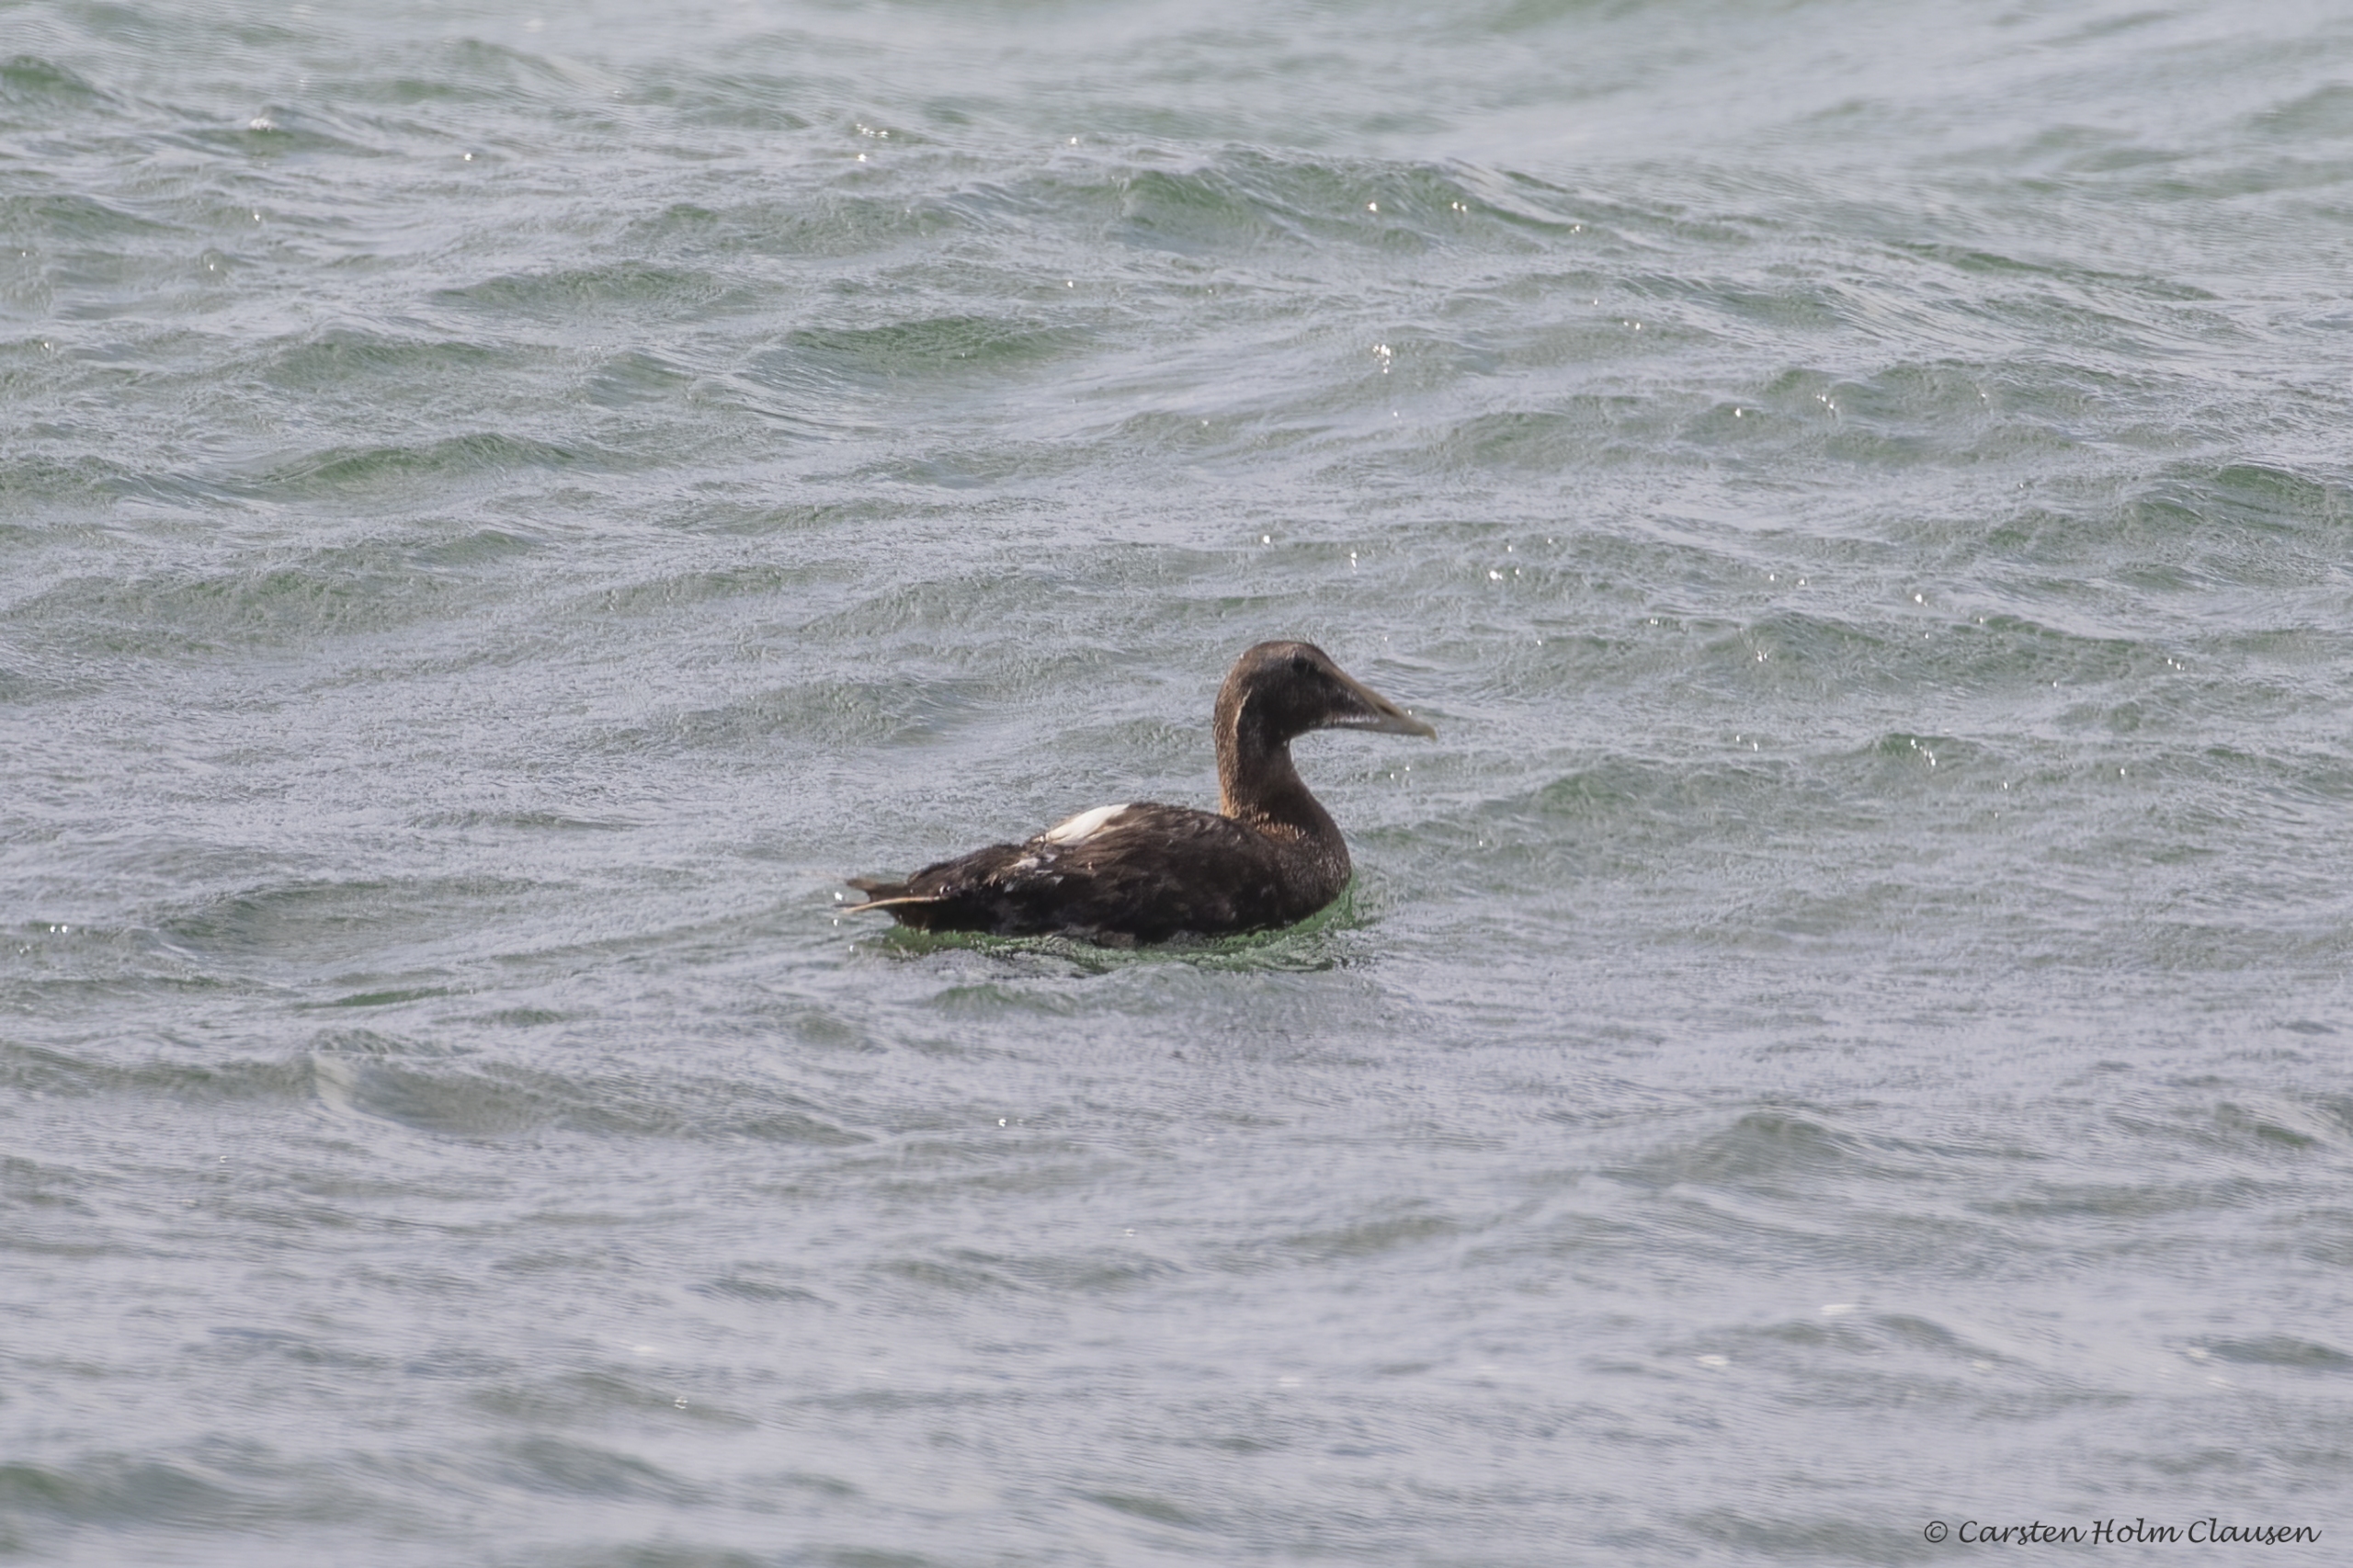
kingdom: Animalia
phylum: Chordata
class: Aves
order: Anseriformes
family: Anatidae
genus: Somateria
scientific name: Somateria mollissima
